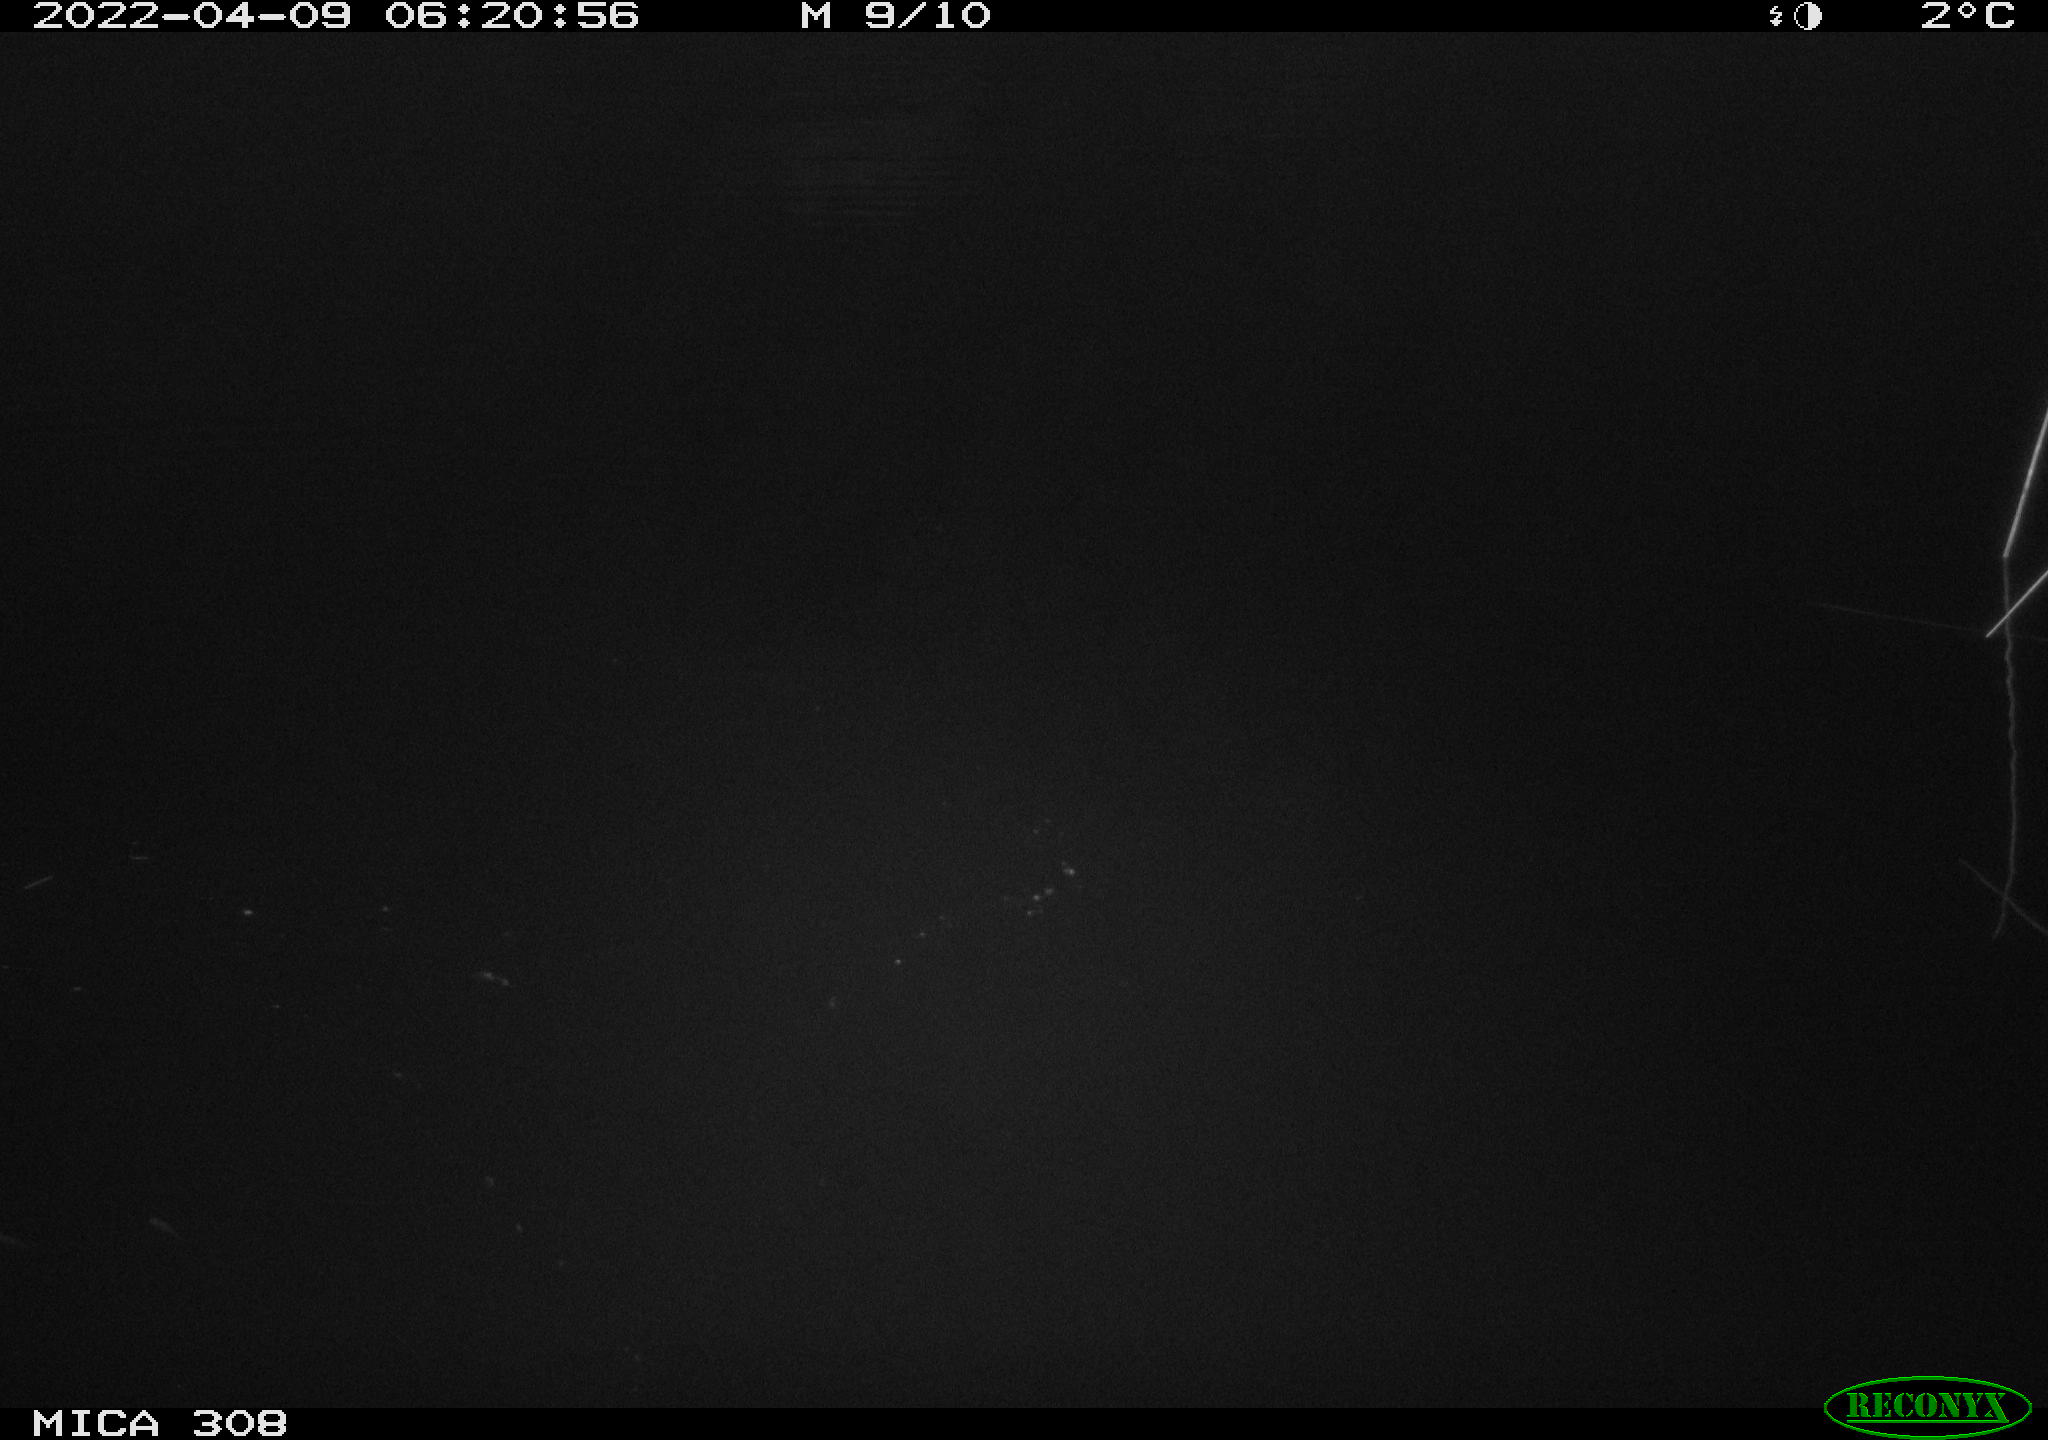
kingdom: Animalia
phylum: Chordata
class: Aves
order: Anseriformes
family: Anatidae
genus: Mareca
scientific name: Mareca strepera
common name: Gadwall
